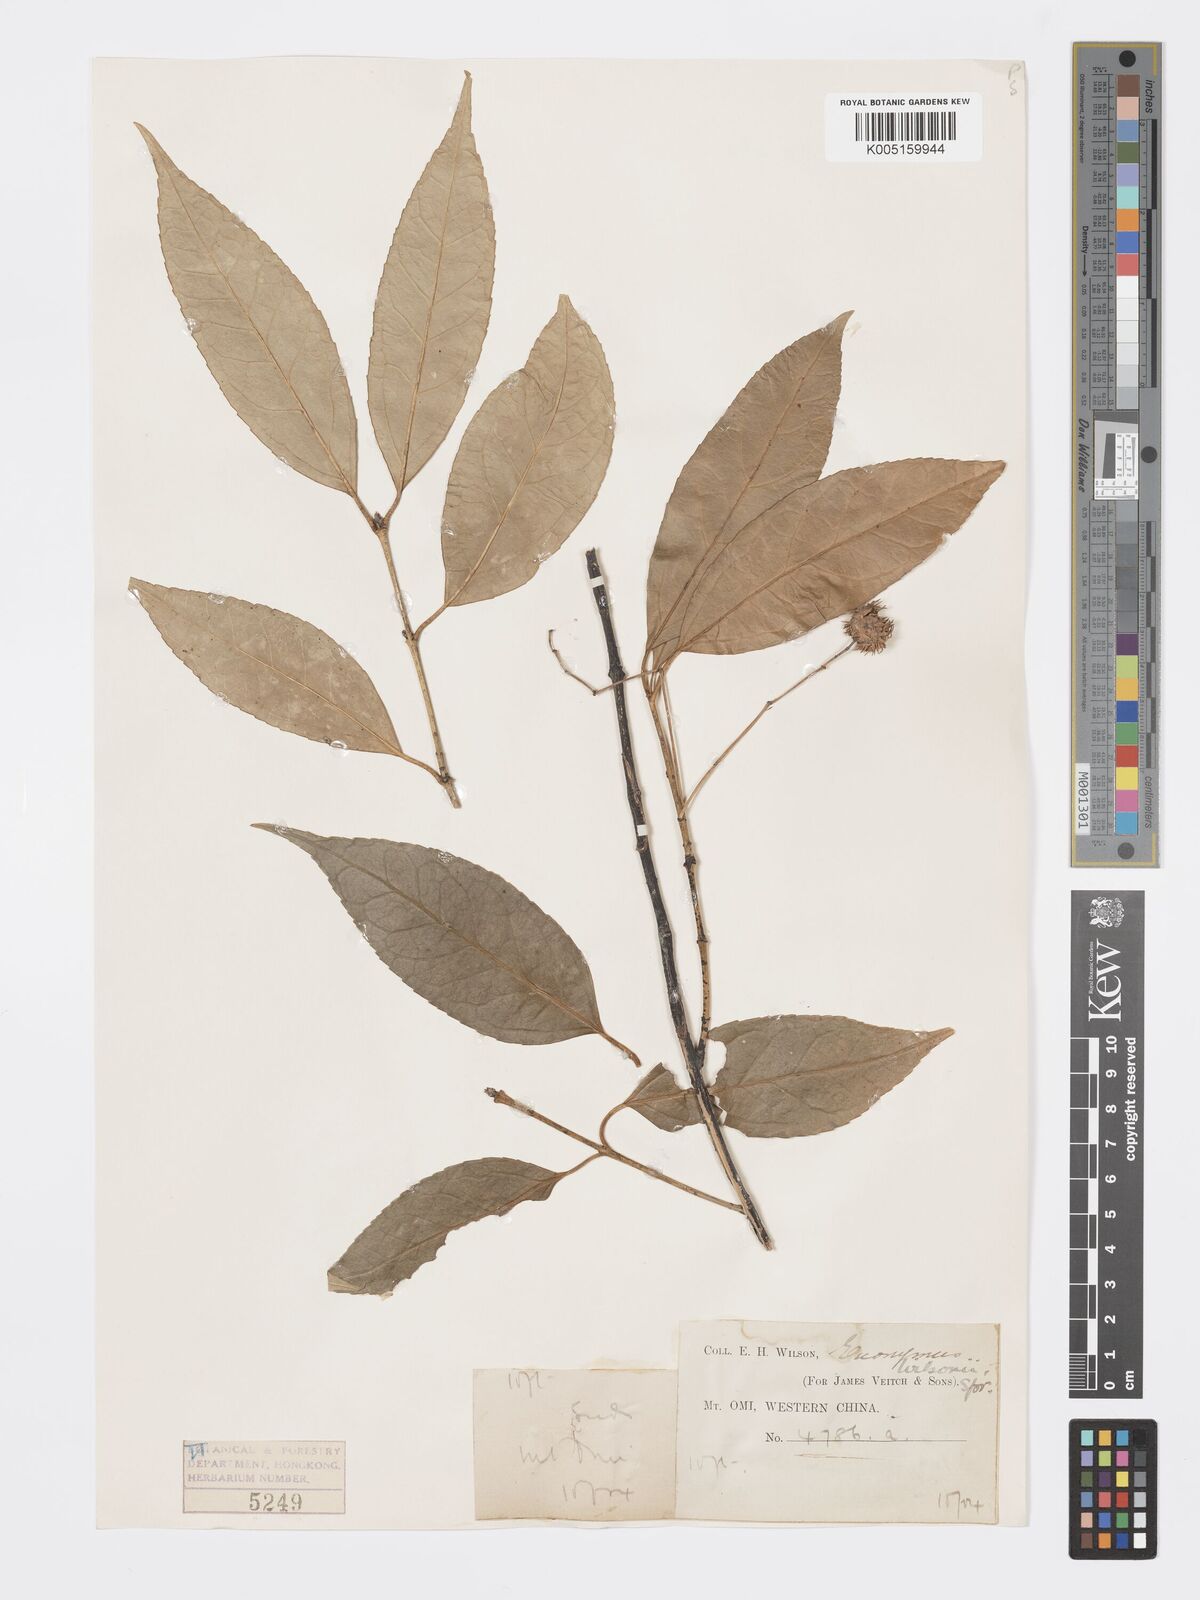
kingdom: Plantae
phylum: Tracheophyta
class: Magnoliopsida
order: Celastrales
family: Celastraceae
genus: Euonymus
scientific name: Euonymus wilsonii
